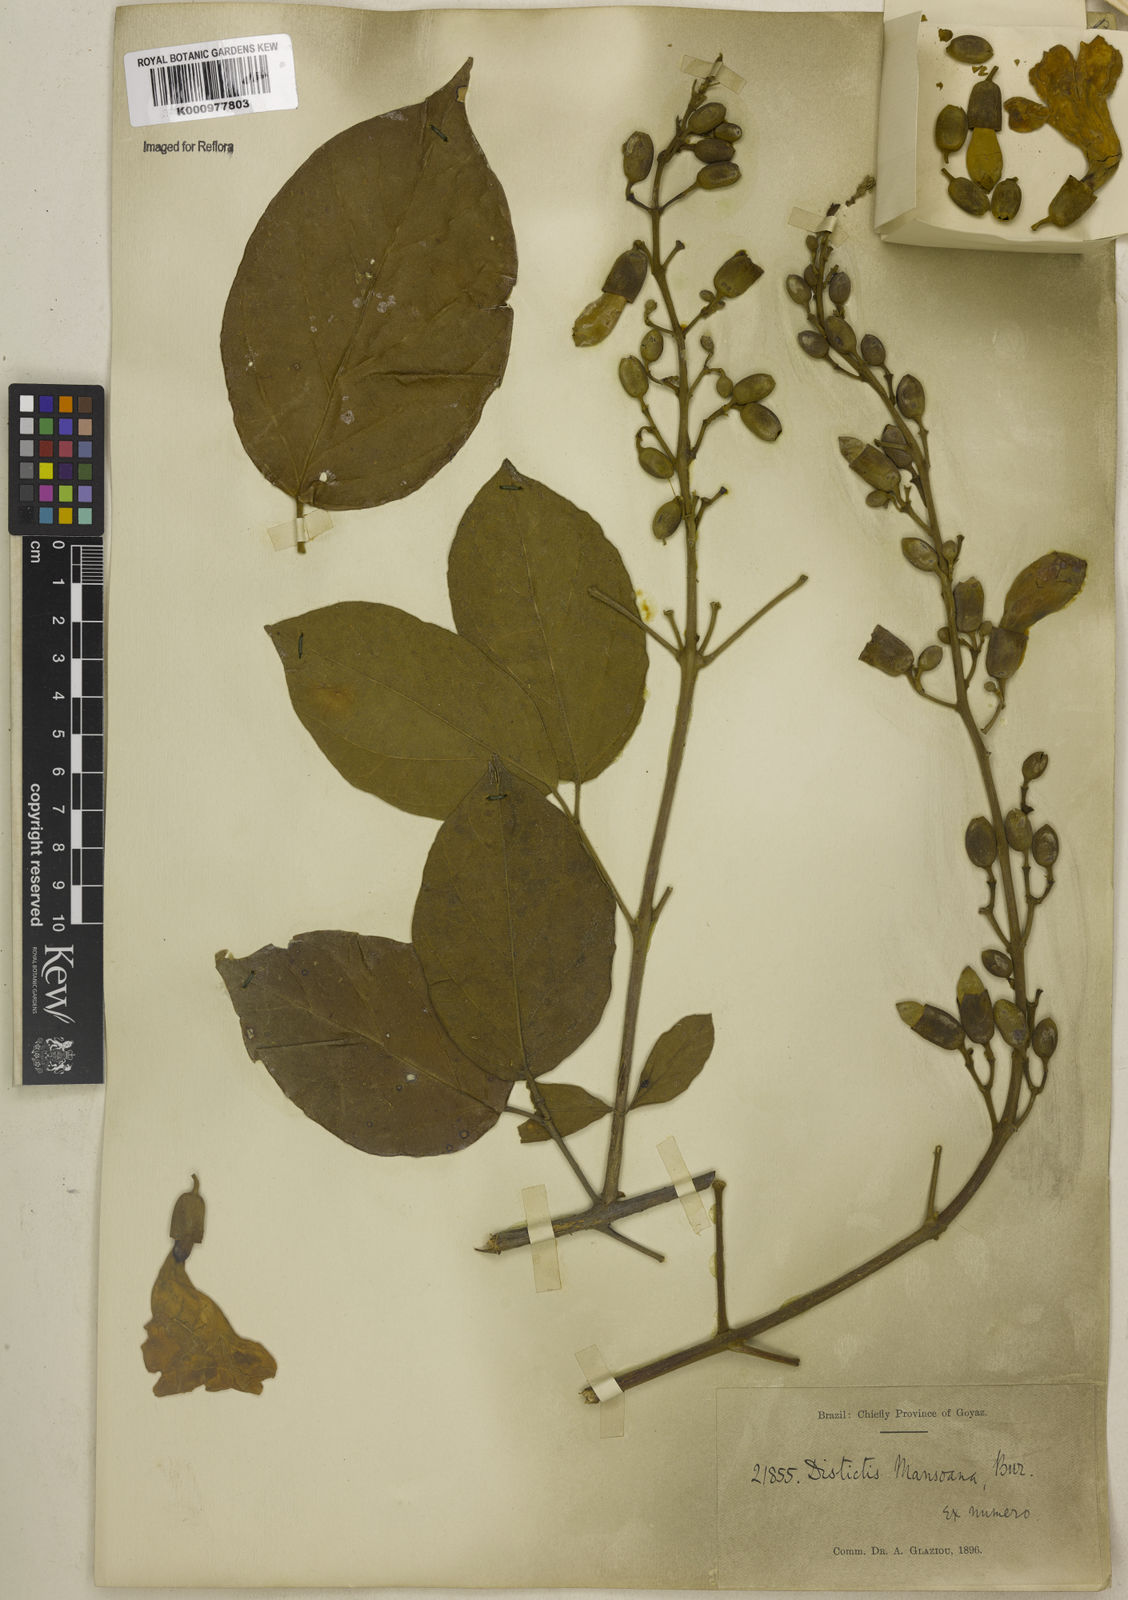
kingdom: Plantae
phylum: Tracheophyta
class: Magnoliopsida
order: Lamiales
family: Bignoniaceae
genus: Amphilophium
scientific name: Amphilophium mansoanum
